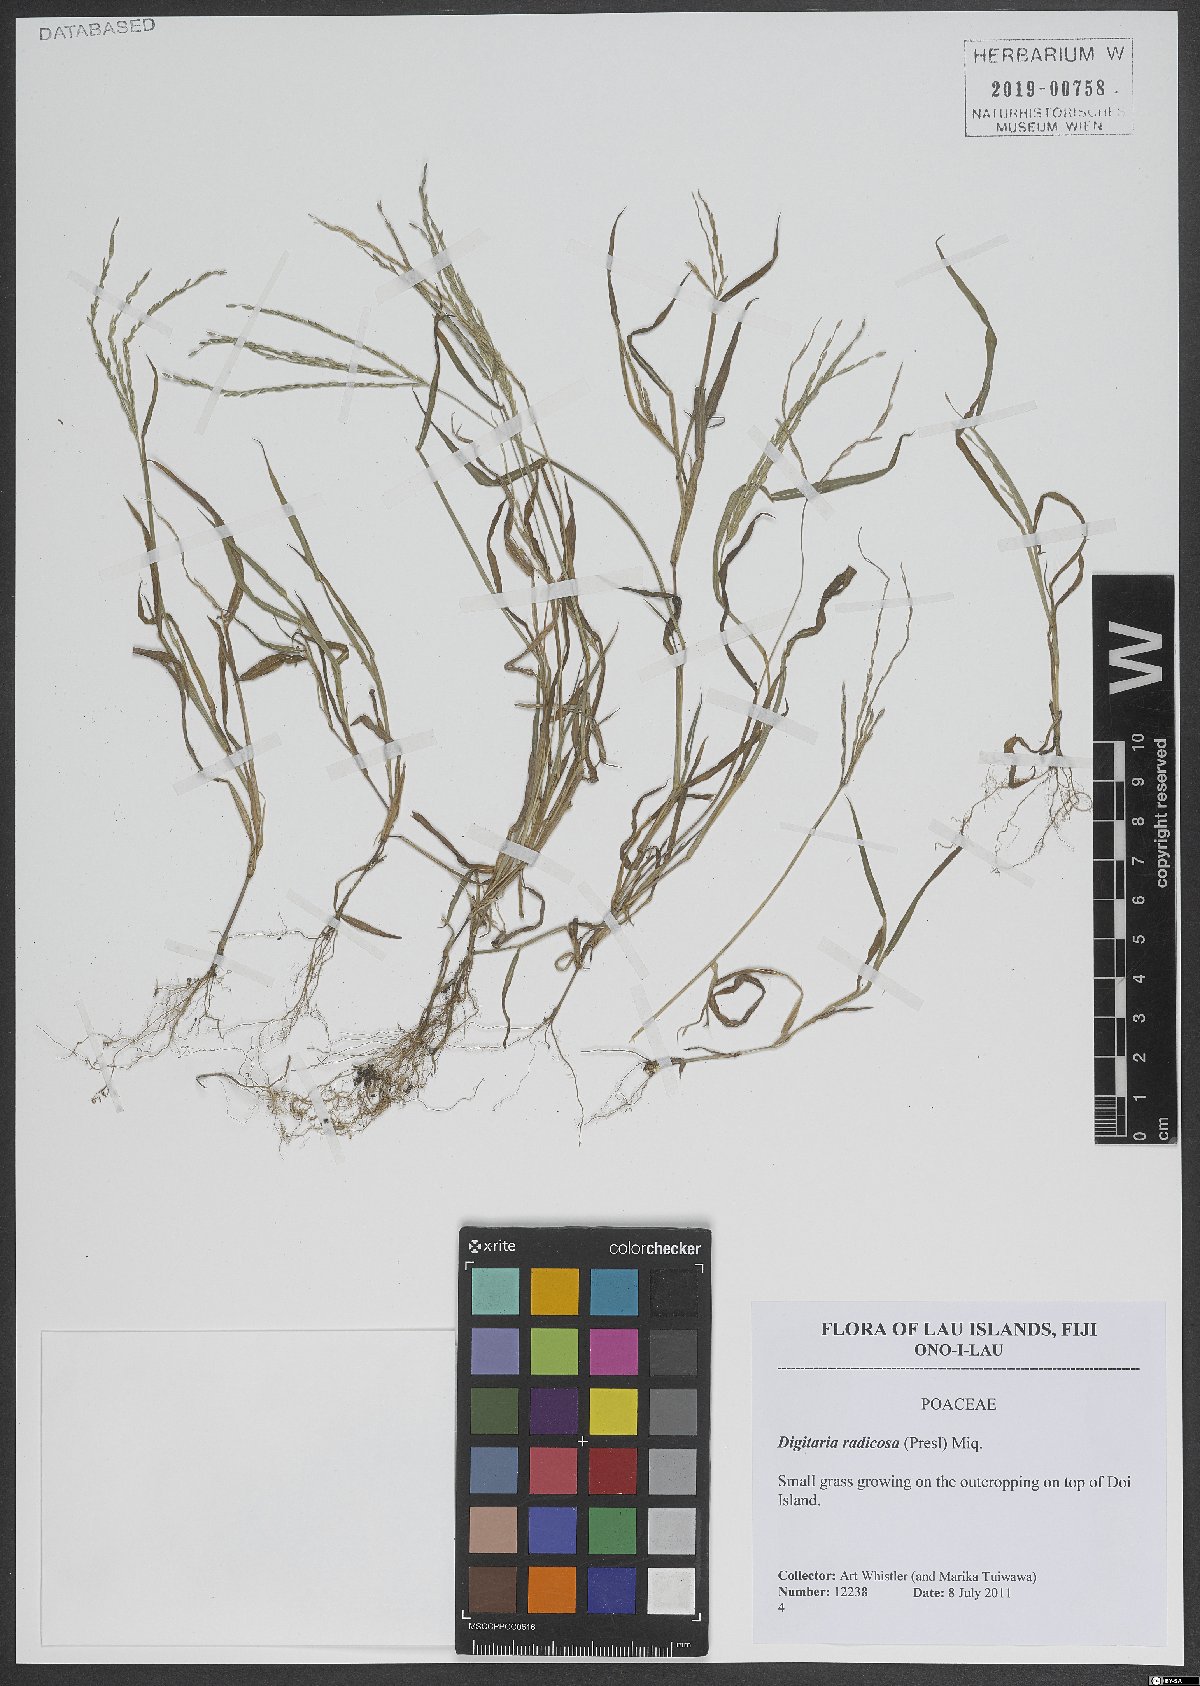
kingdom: Plantae
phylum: Tracheophyta
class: Liliopsida
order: Poales
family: Poaceae
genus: Digitaria
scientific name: Digitaria radicosa
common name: Trailing crabgrass
